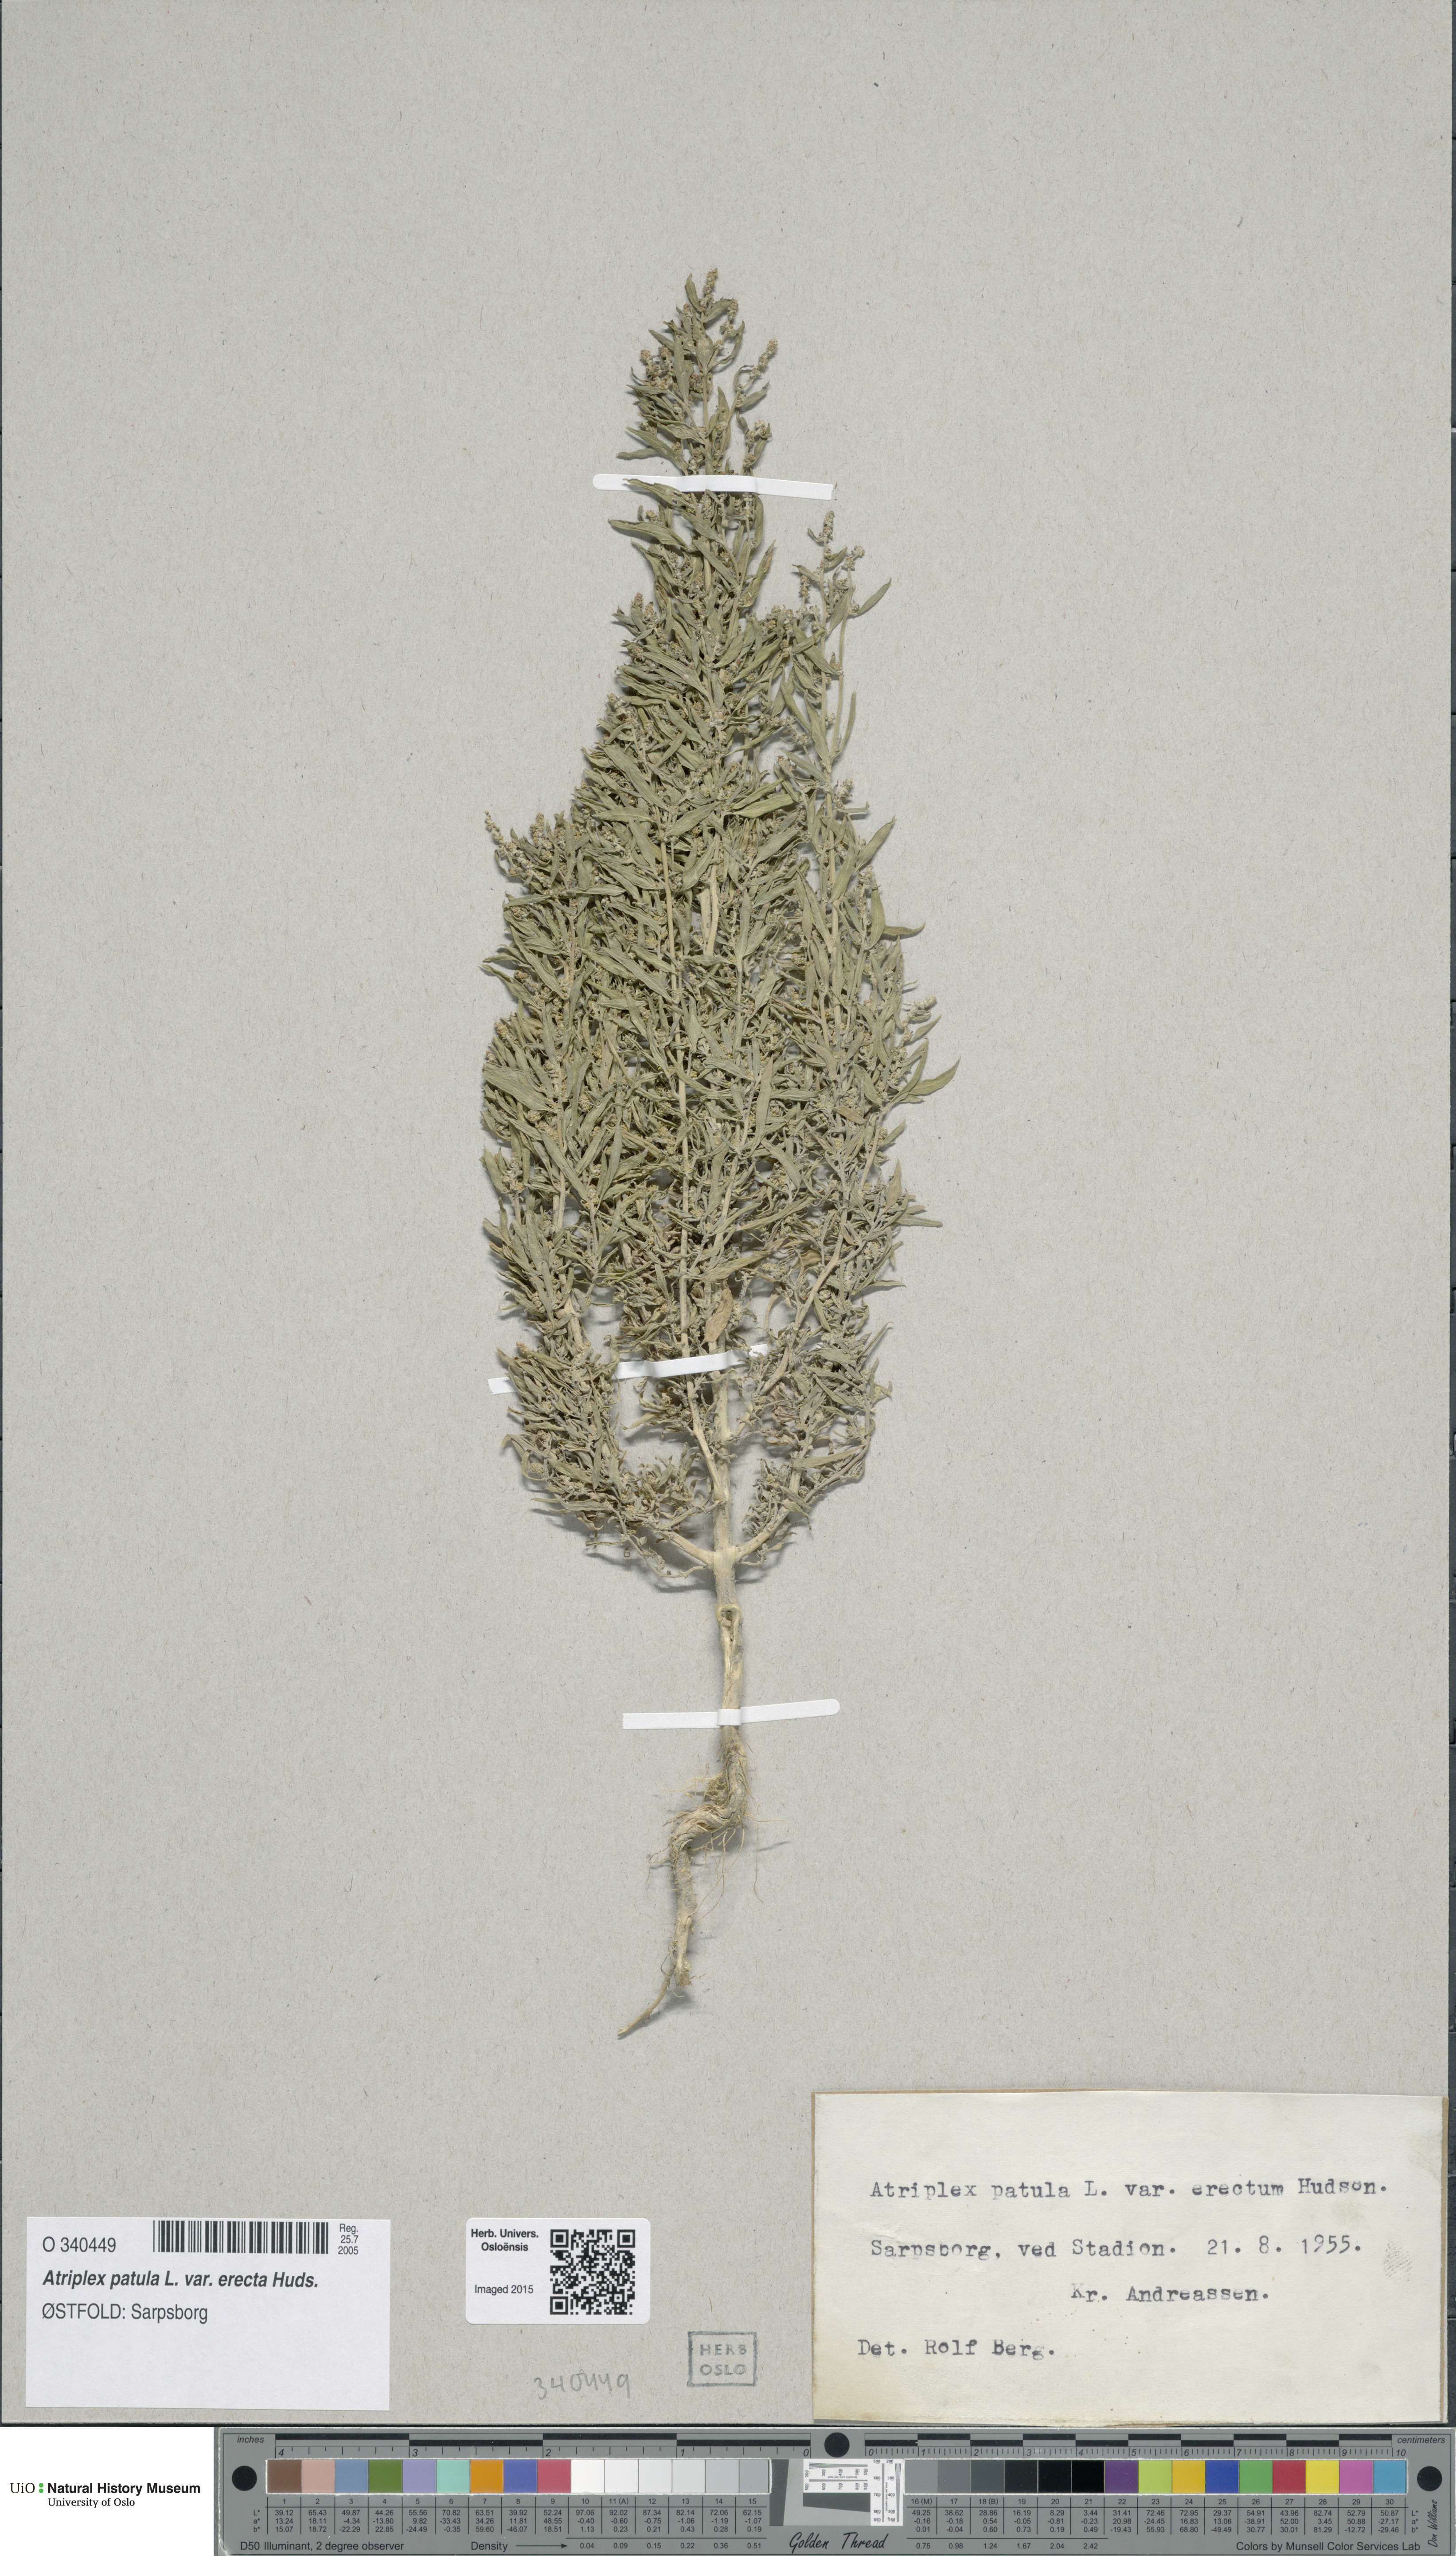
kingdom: Plantae
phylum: Tracheophyta
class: Magnoliopsida
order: Caryophyllales
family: Amaranthaceae
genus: Atriplex
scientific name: Atriplex patula
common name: Common orache
